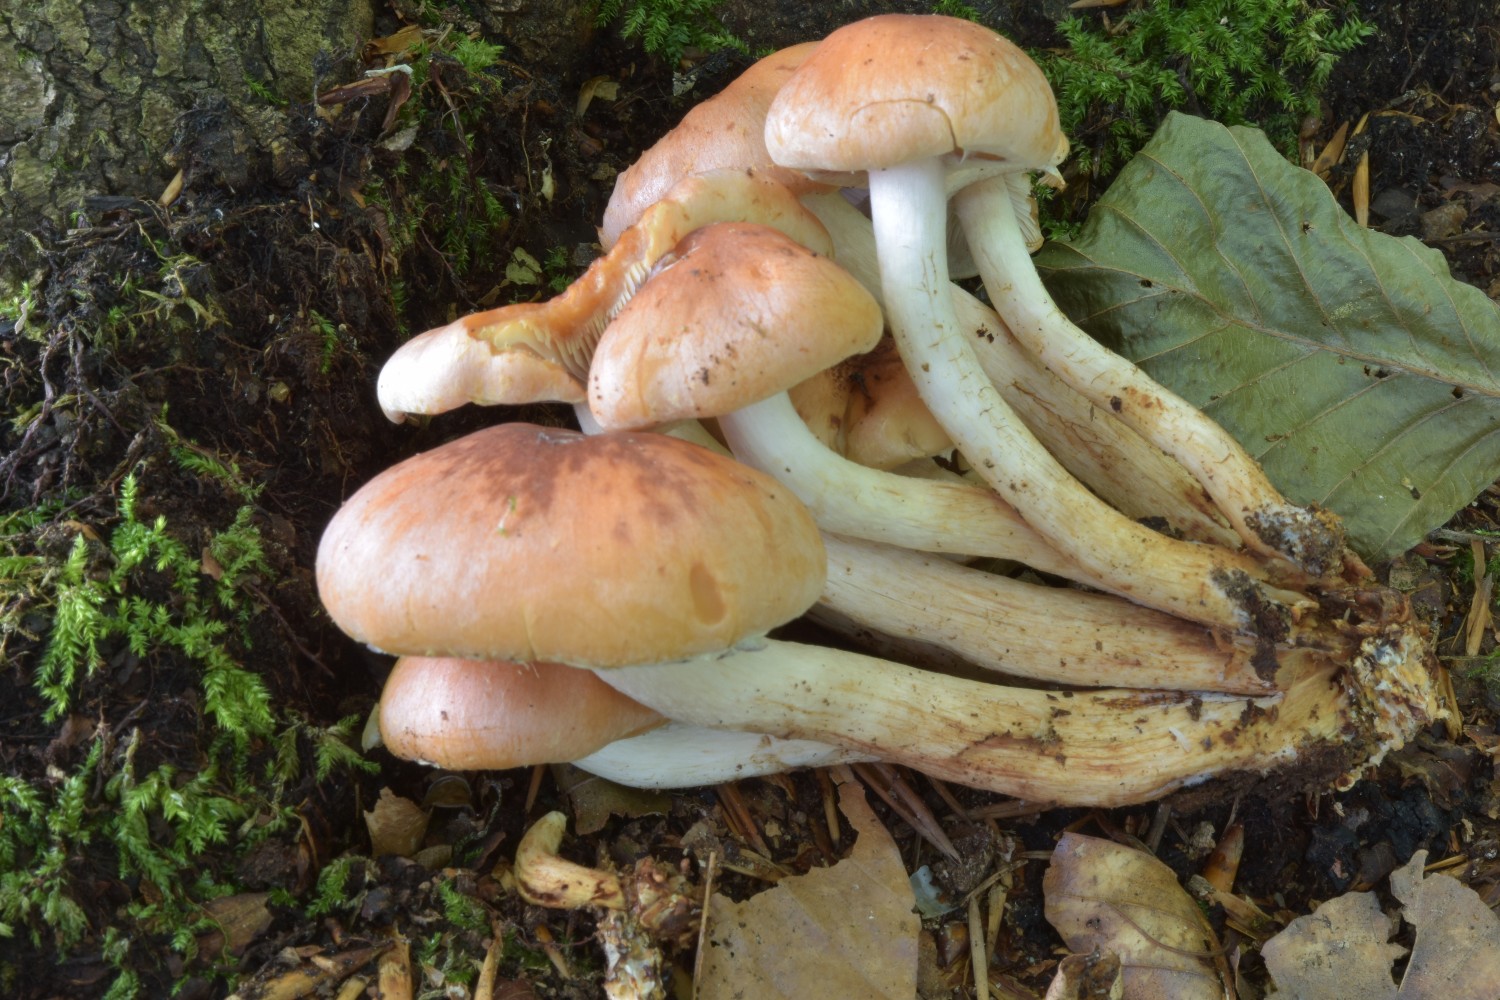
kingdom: Fungi
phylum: Basidiomycota
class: Agaricomycetes
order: Agaricales
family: Strophariaceae
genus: Hypholoma
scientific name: Hypholoma lateritium
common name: teglrød svovlhat
